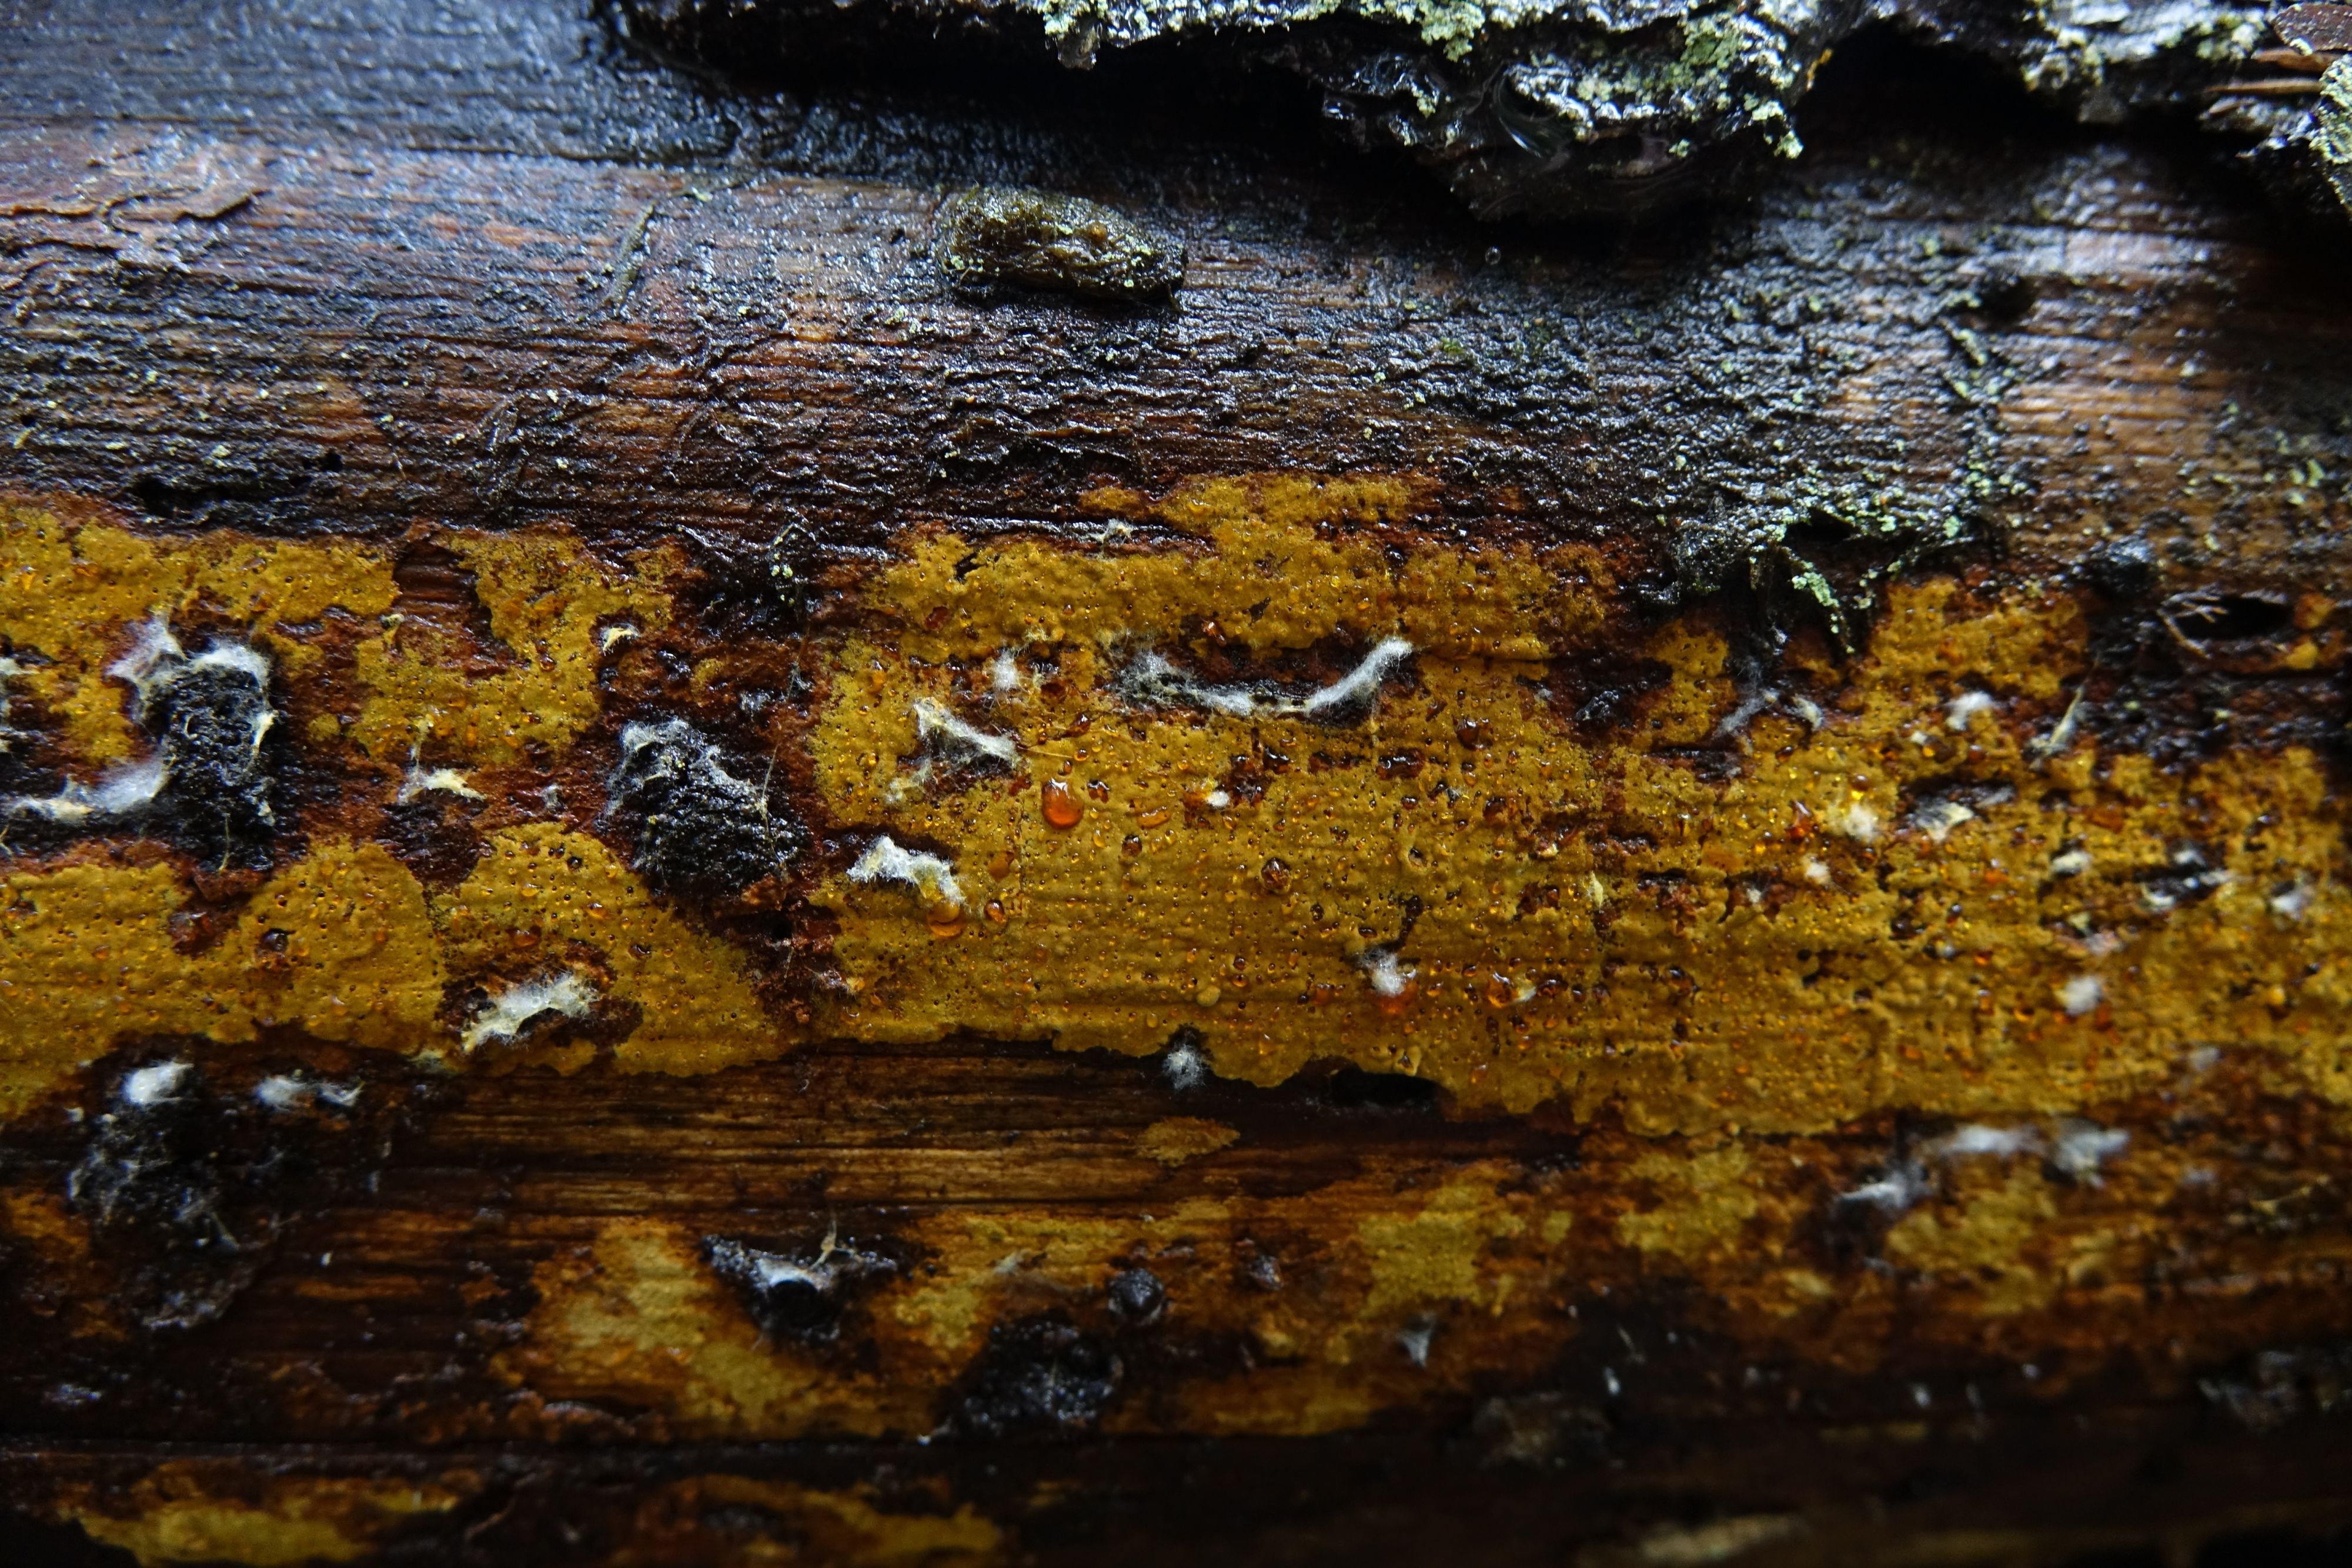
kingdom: Fungi
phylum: Basidiomycota
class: Agaricomycetes
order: Polyporales
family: Sparassidaceae
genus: Crustoderma
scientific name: Crustoderma dryinum
